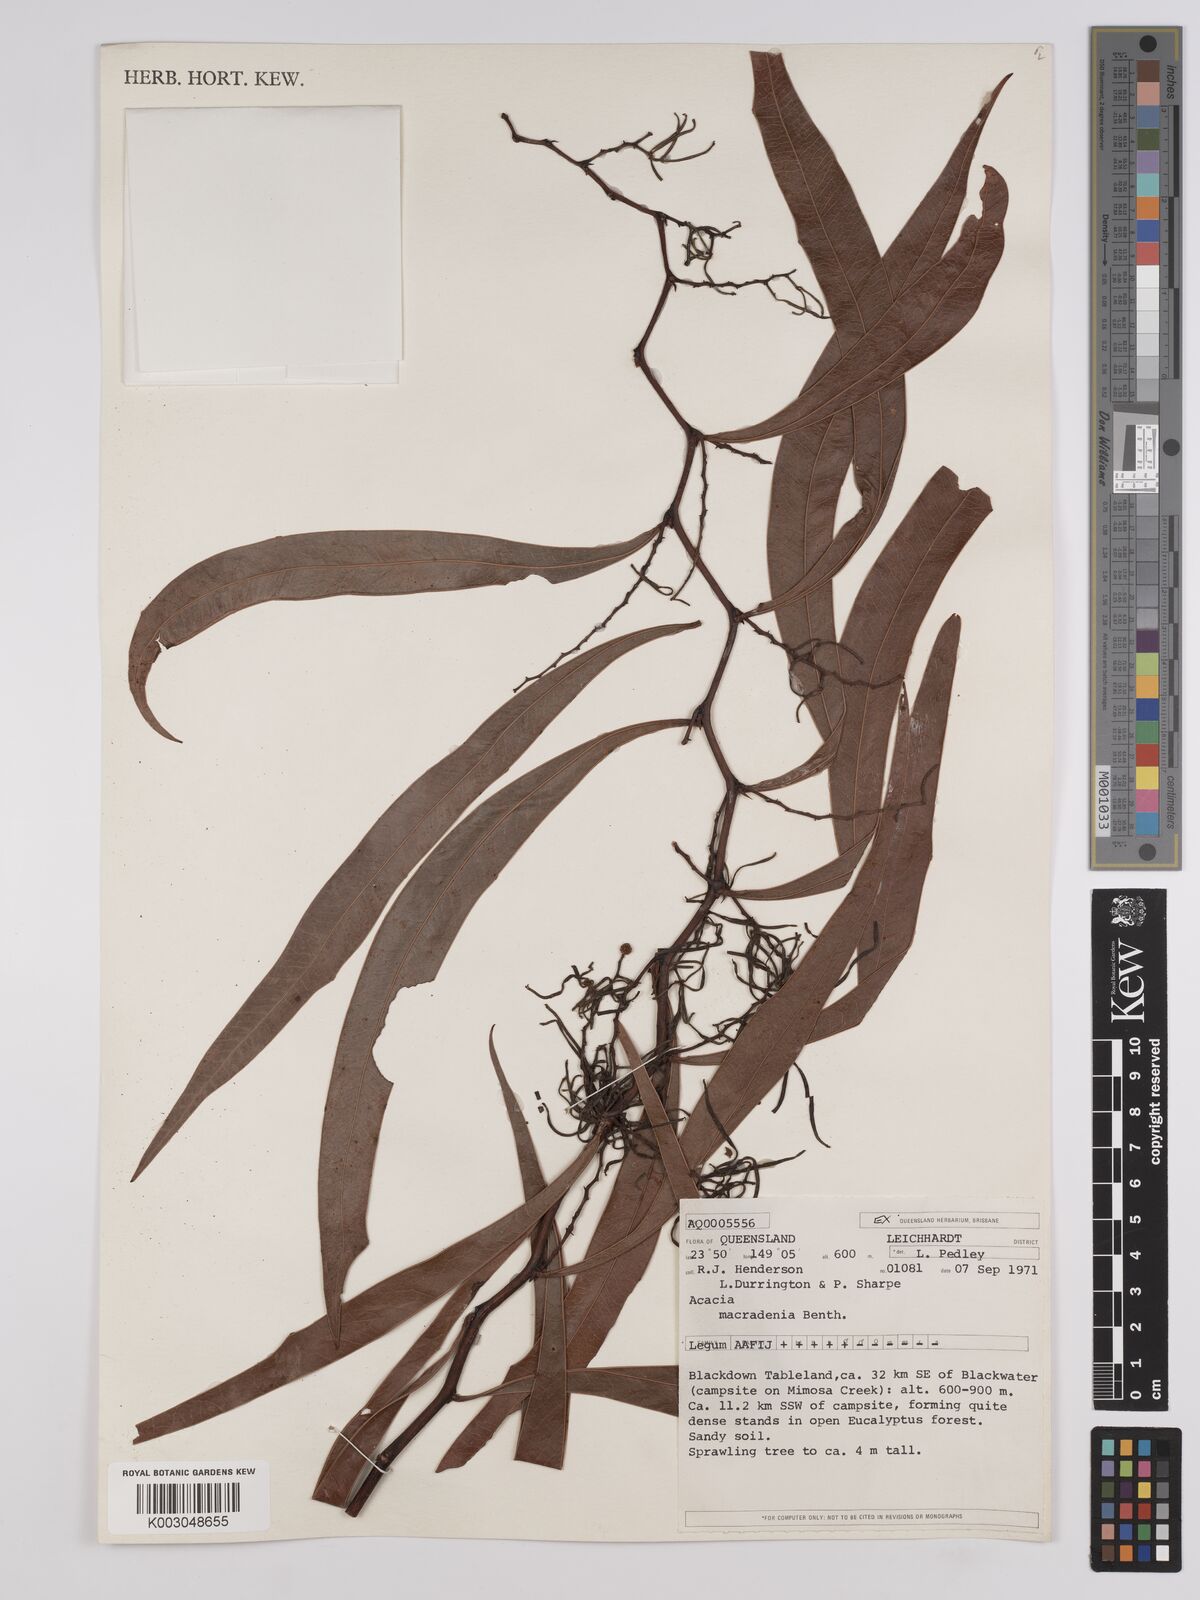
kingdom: Plantae
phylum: Tracheophyta
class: Magnoliopsida
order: Fabales
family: Fabaceae
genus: Acacia
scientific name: Acacia macradenia
